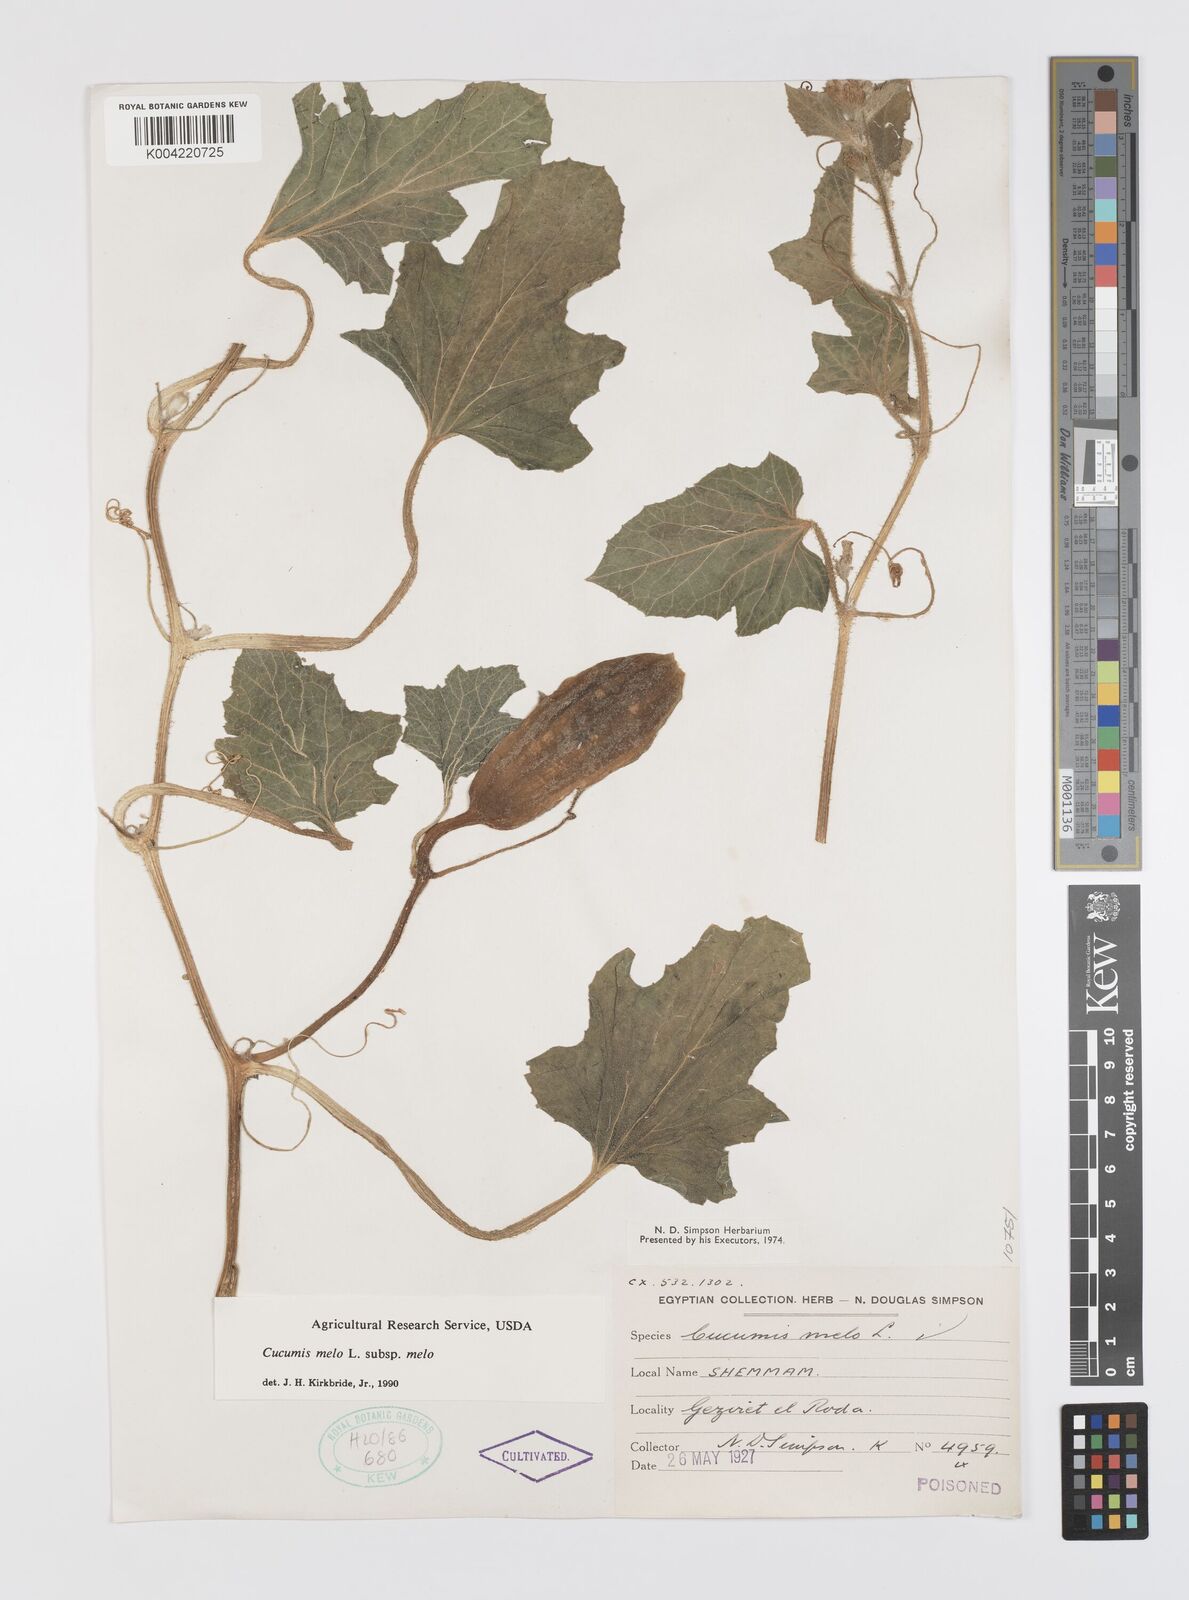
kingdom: Plantae
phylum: Tracheophyta
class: Magnoliopsida
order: Cucurbitales
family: Cucurbitaceae
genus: Cucumis
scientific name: Cucumis melo
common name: Melon
